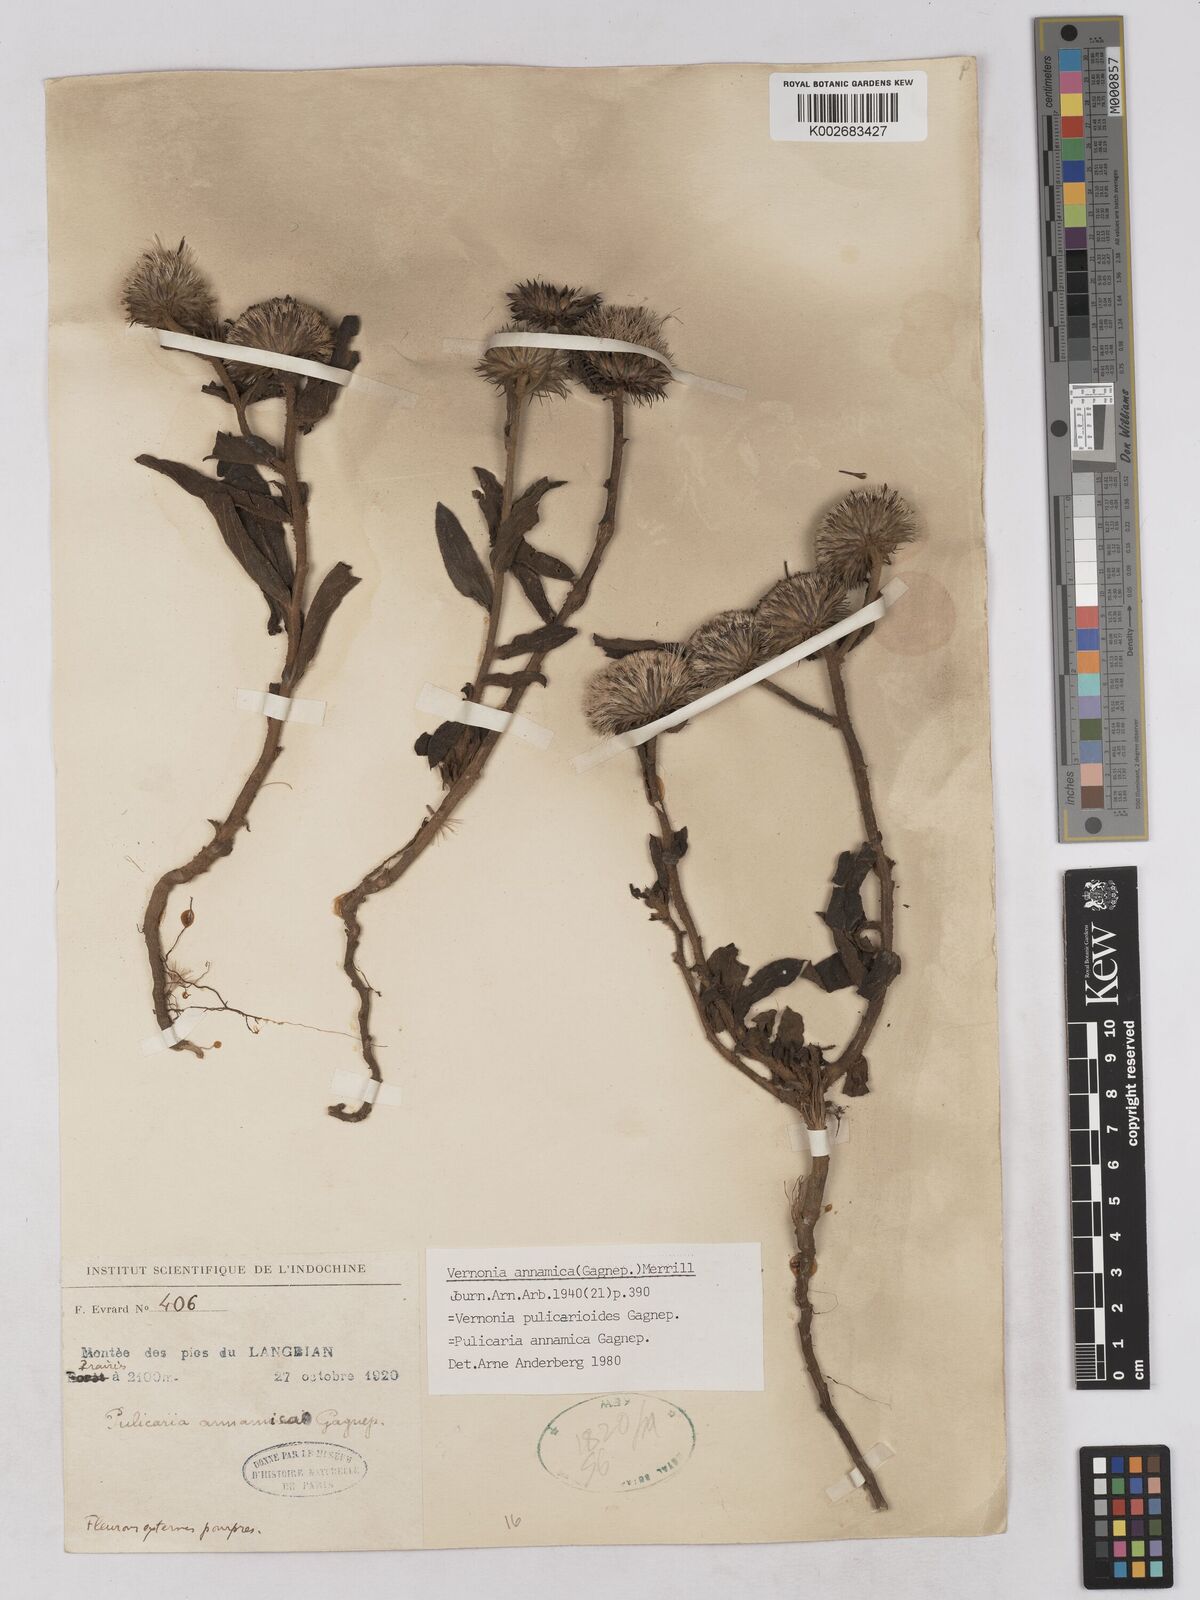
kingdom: Plantae
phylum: Tracheophyta
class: Magnoliopsida
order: Asterales
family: Asteraceae
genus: Pulicarioidea
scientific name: Pulicarioidea annamica
